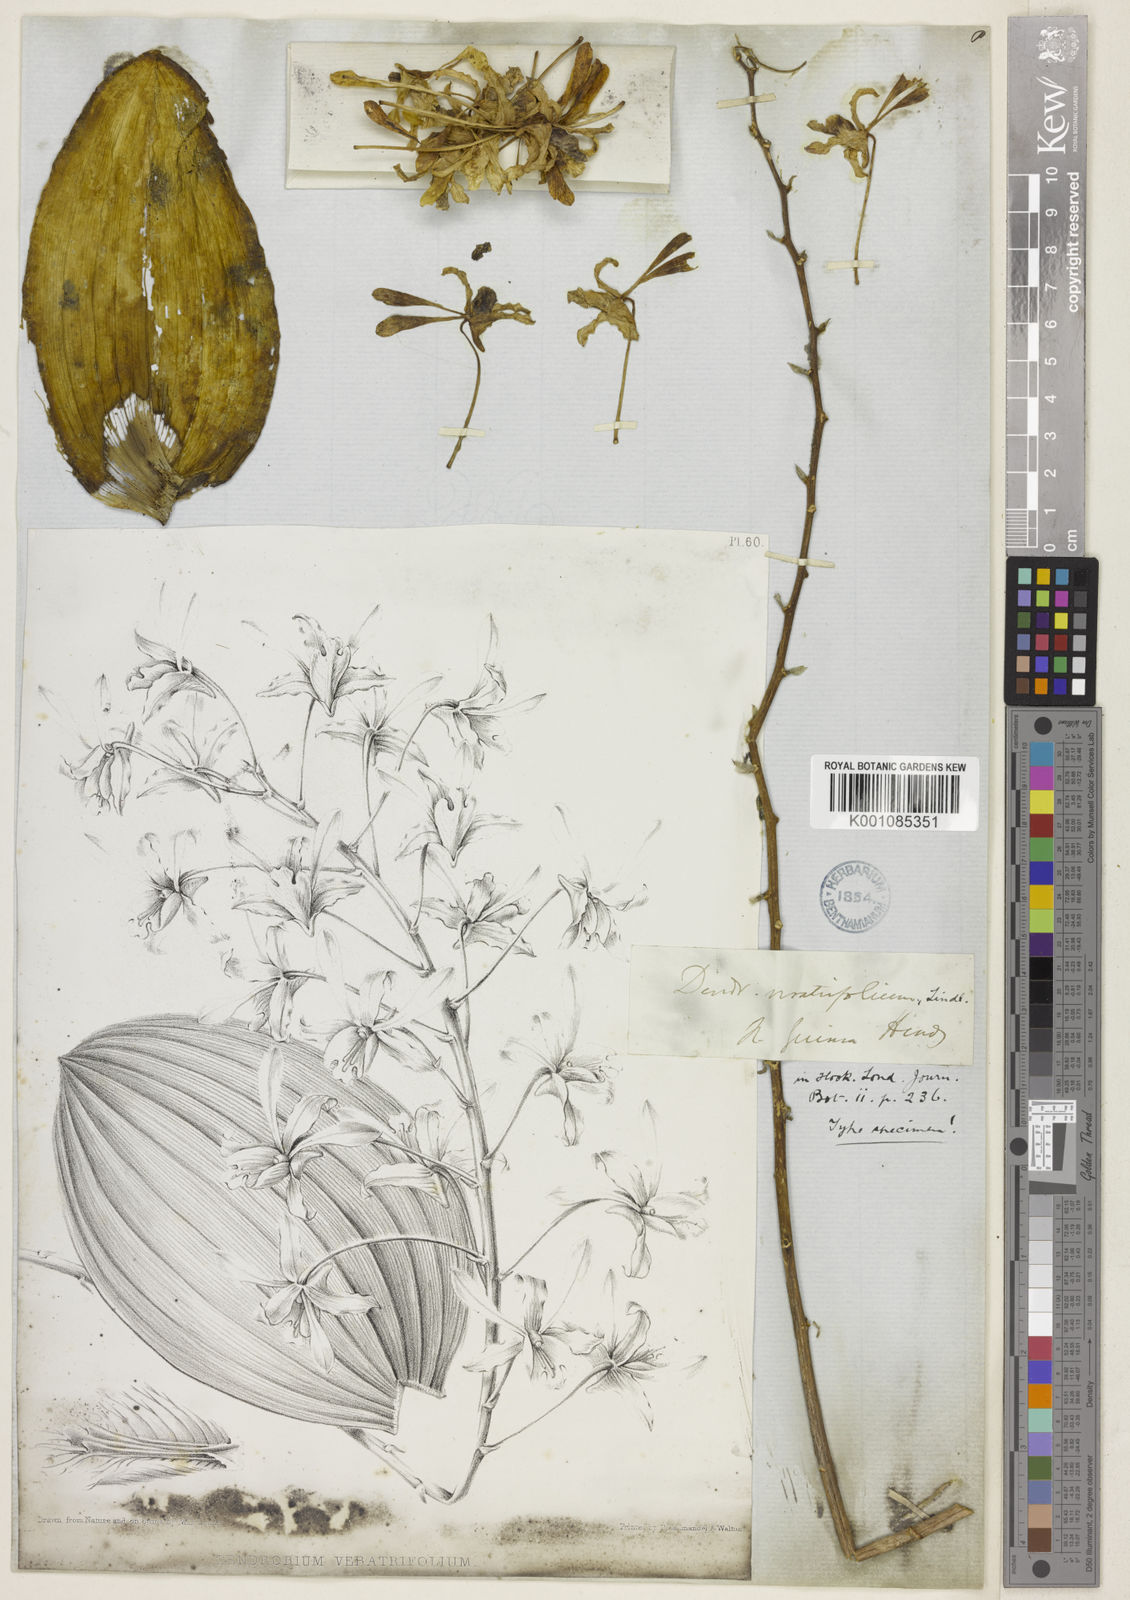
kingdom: Plantae
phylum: Tracheophyta
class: Liliopsida
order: Asparagales
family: Orchidaceae
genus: Dendrobium
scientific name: Dendrobium lineale
